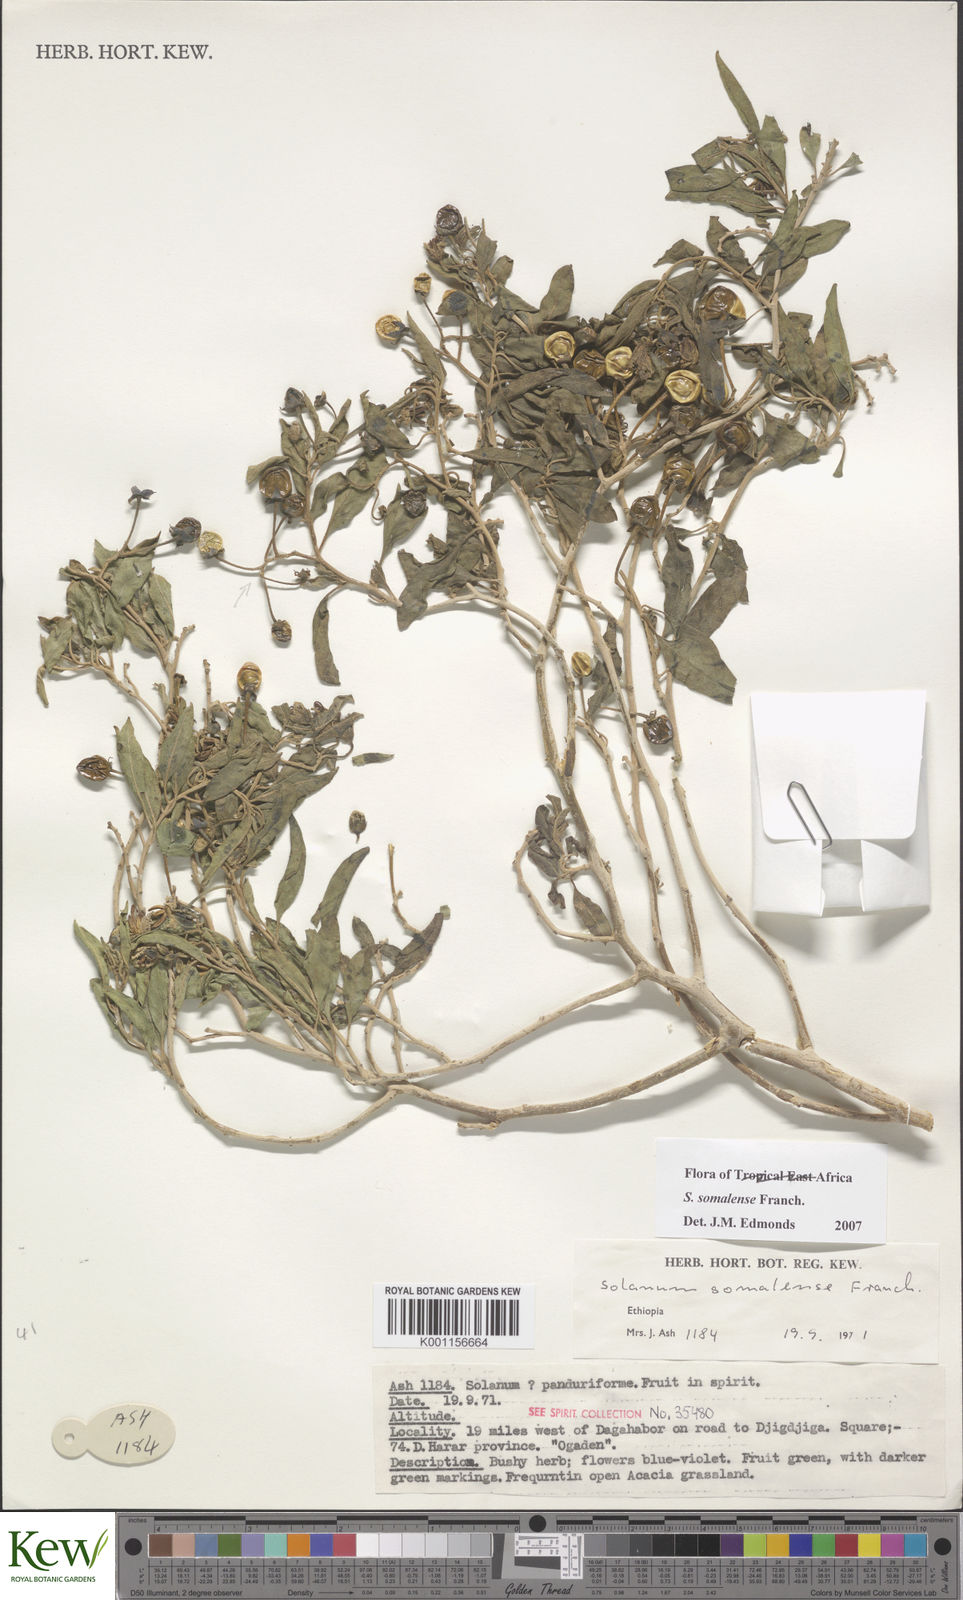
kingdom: Plantae
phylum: Tracheophyta
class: Magnoliopsida
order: Solanales
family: Solanaceae
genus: Solanum
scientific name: Solanum somalense
